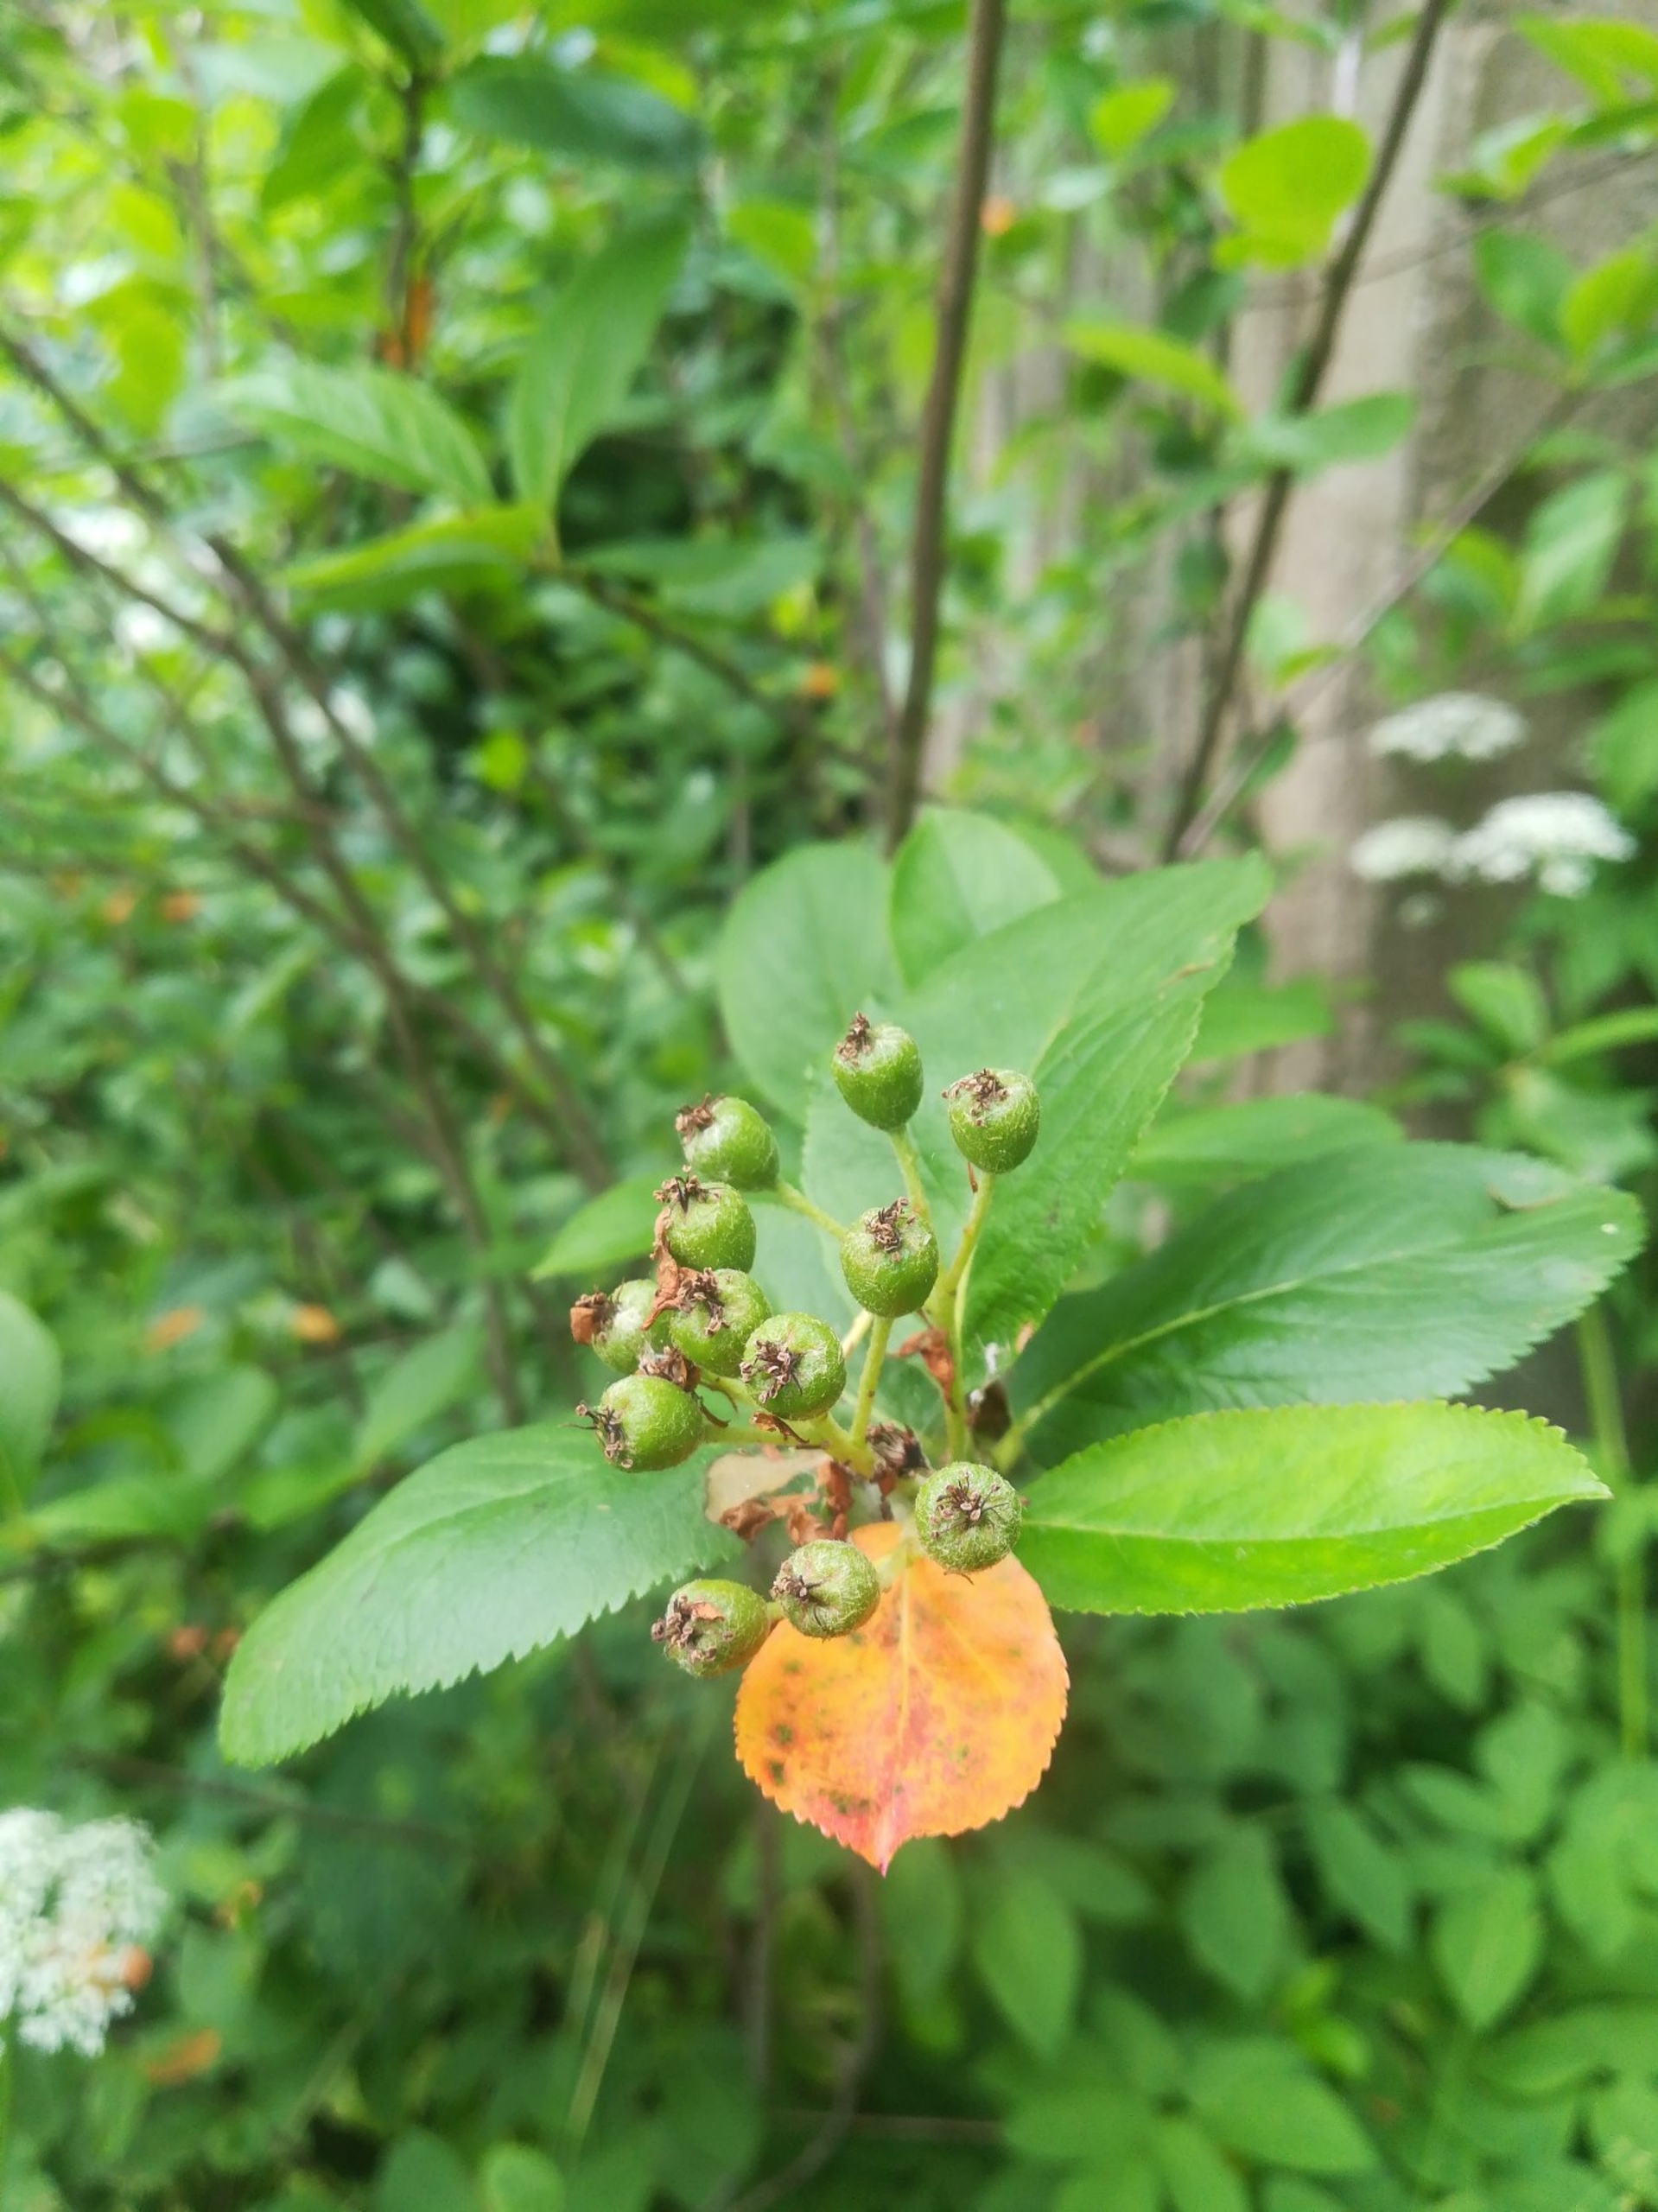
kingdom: Plantae
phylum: Tracheophyta
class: Magnoliopsida
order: Rosales
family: Rosaceae
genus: Aronia
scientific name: Aronia melanocarpa
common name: Sortfrugtet surbær
